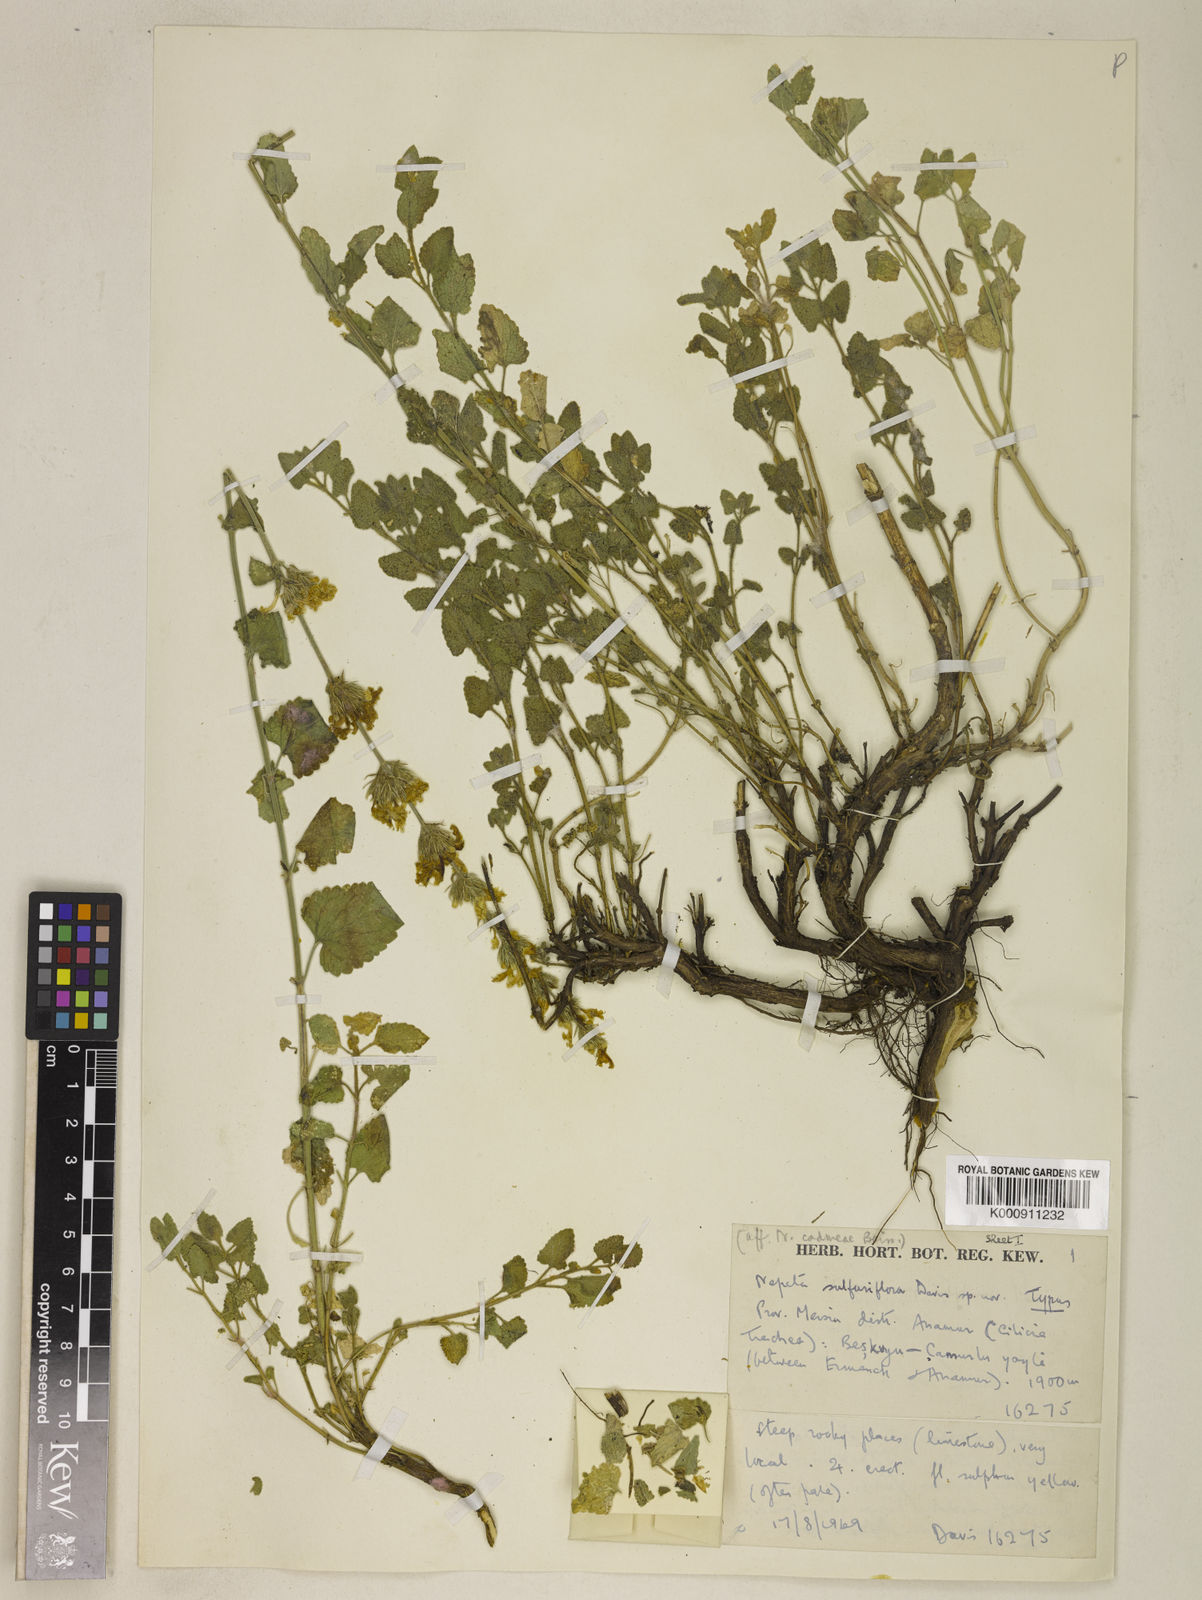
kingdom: Plantae
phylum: Tracheophyta
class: Magnoliopsida
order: Lamiales
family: Lamiaceae
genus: Nepeta
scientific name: Nepeta sulfuriflora
